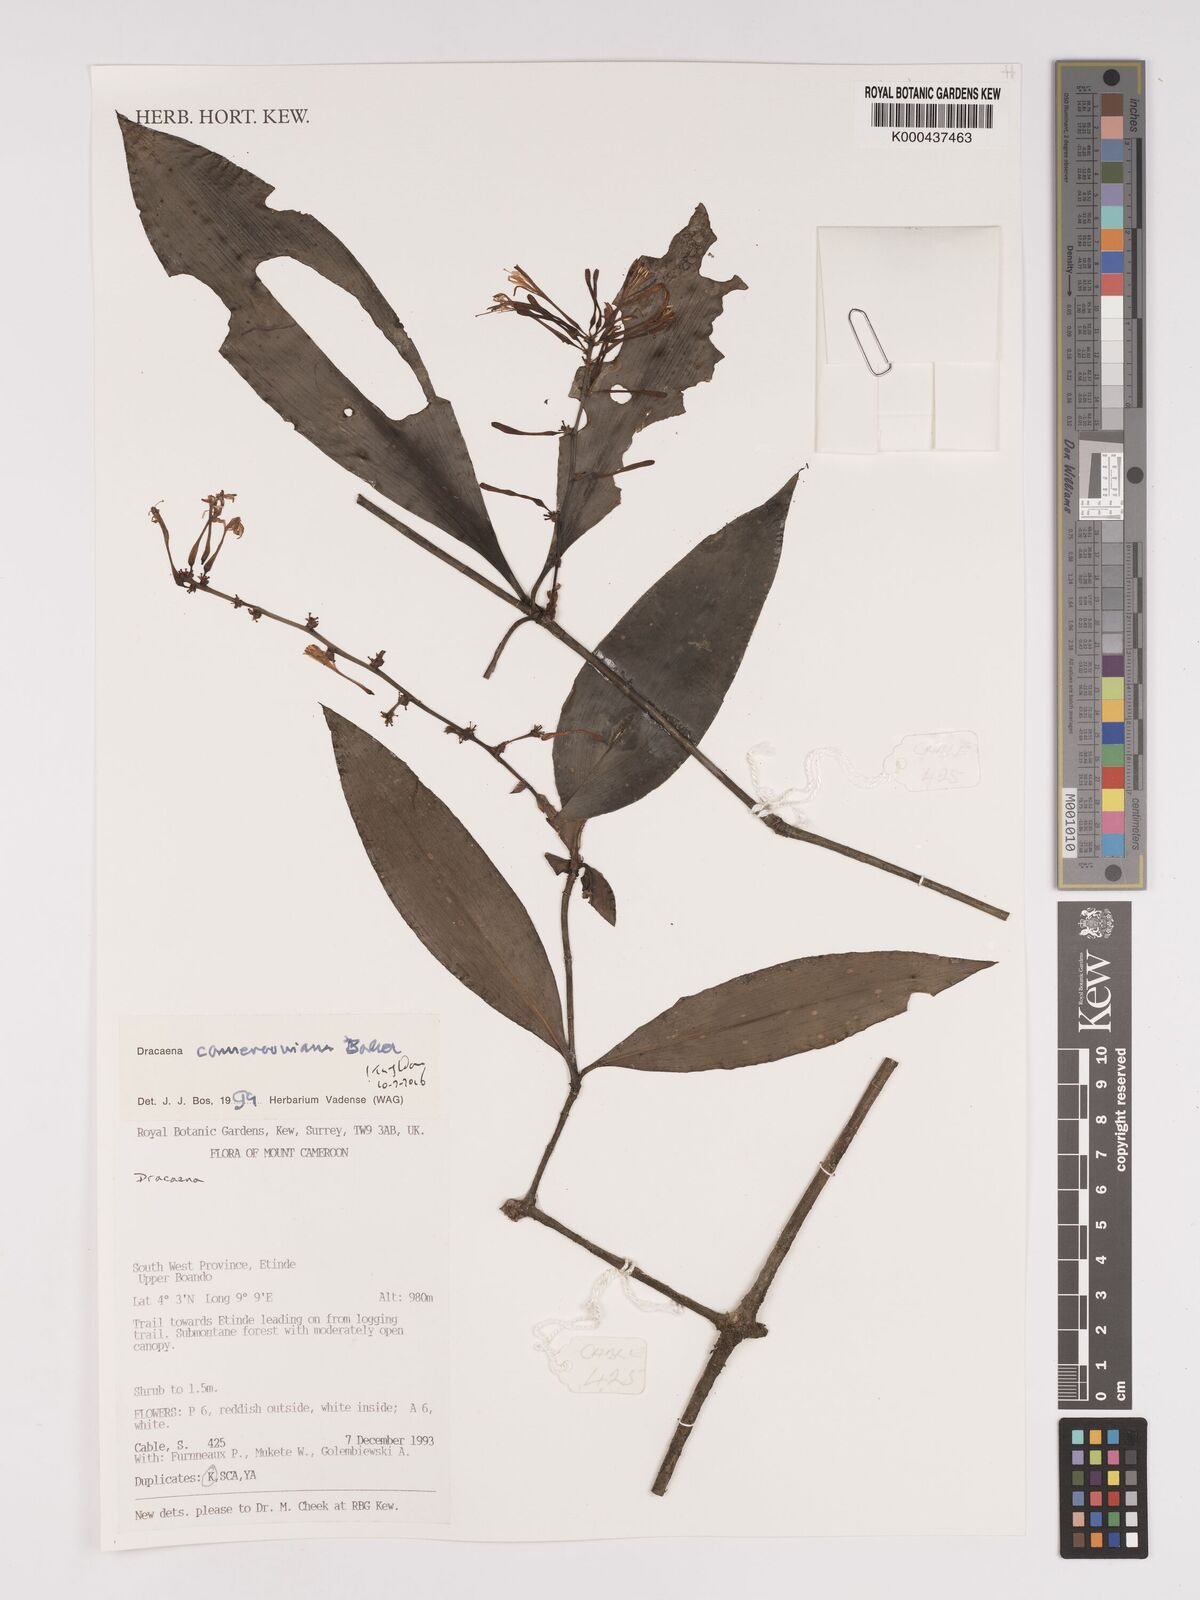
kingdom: Plantae
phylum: Tracheophyta
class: Liliopsida
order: Asparagales
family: Asparagaceae
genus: Dracaena
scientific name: Dracaena camerooniana
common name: Dragon tree
